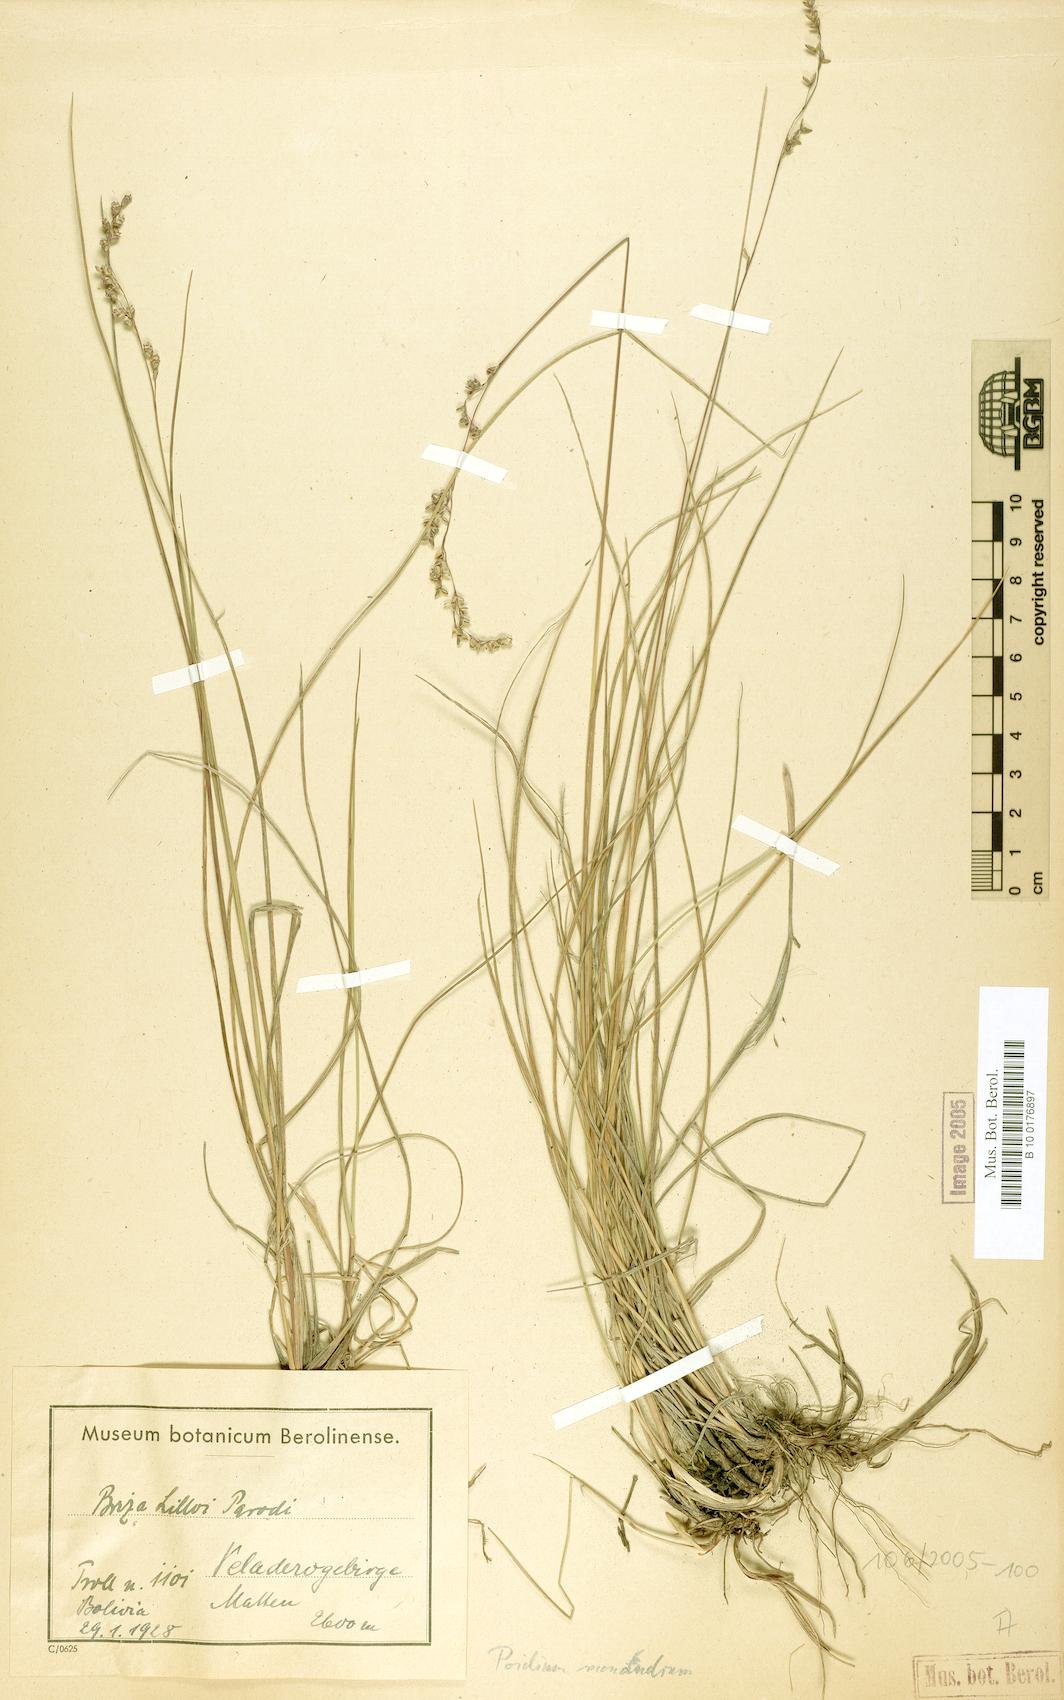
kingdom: Plantae
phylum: Tracheophyta
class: Liliopsida
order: Poales
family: Poaceae
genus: Poidium
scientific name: Poidium monandrum
